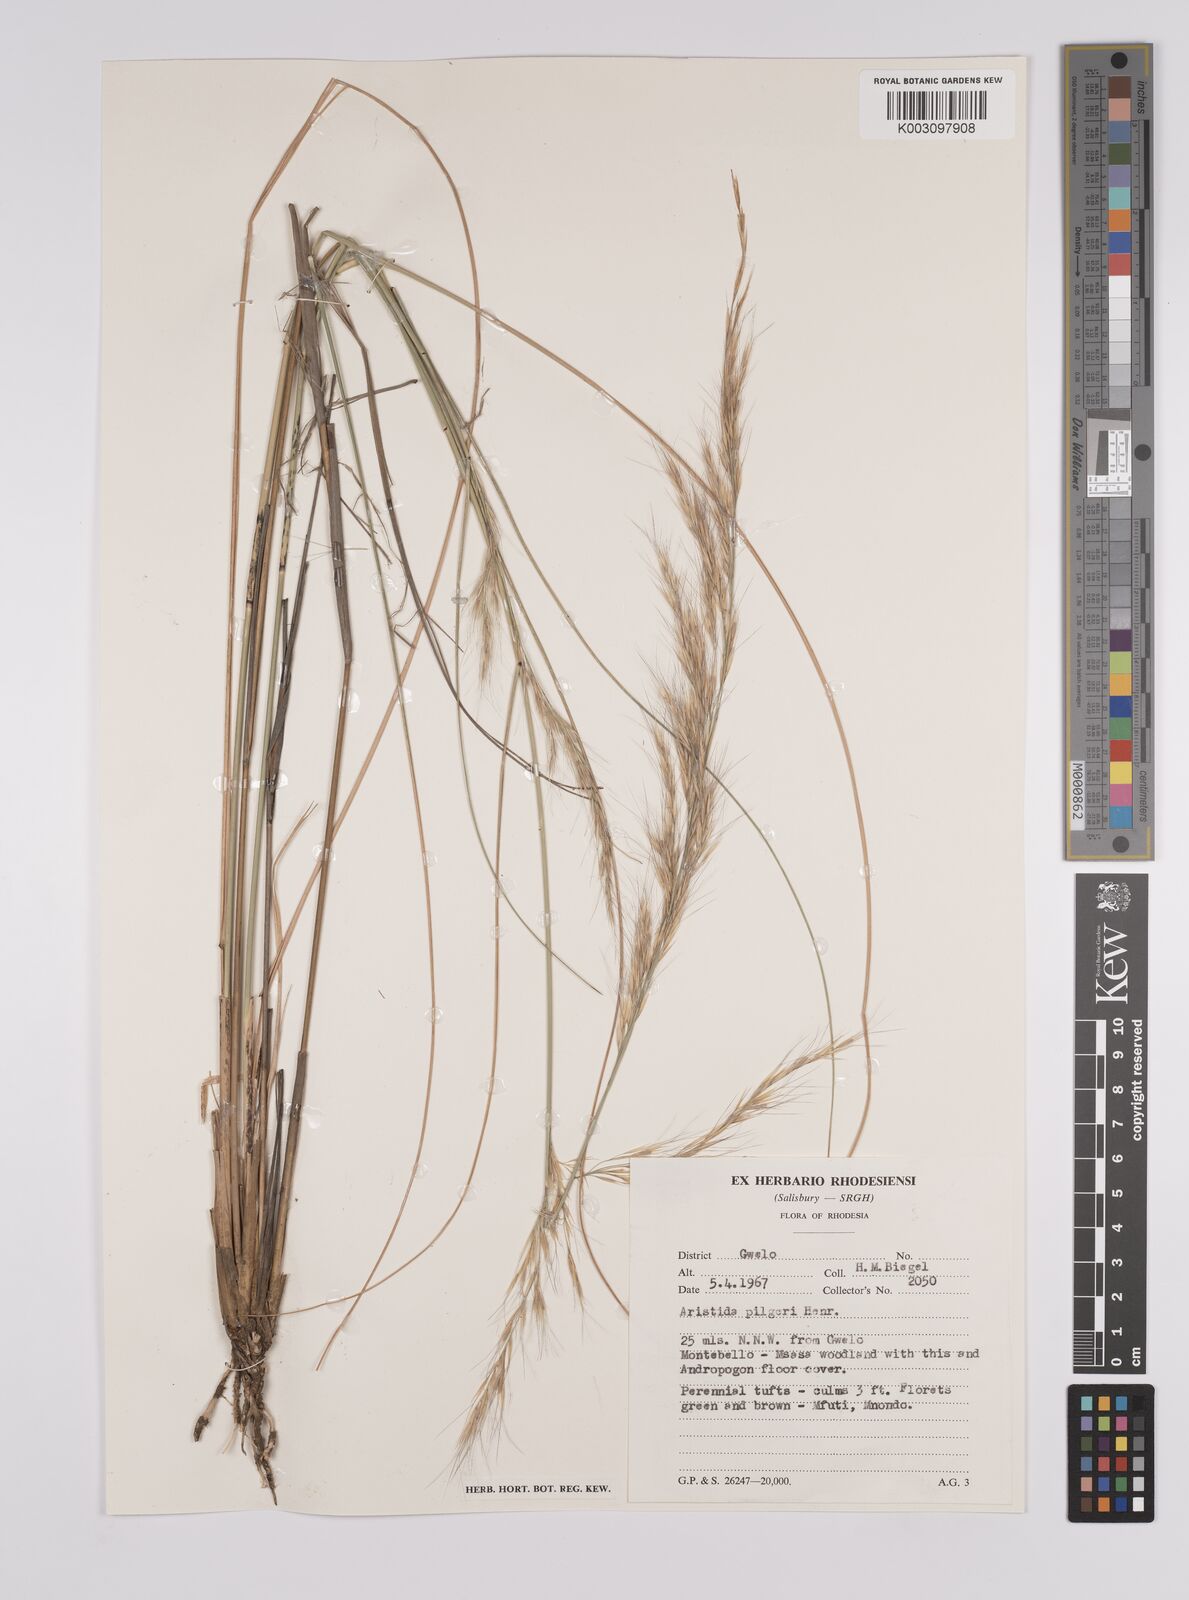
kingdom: Plantae
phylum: Tracheophyta
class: Liliopsida
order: Poales
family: Poaceae
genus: Aristida
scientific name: Aristida pilgeri
